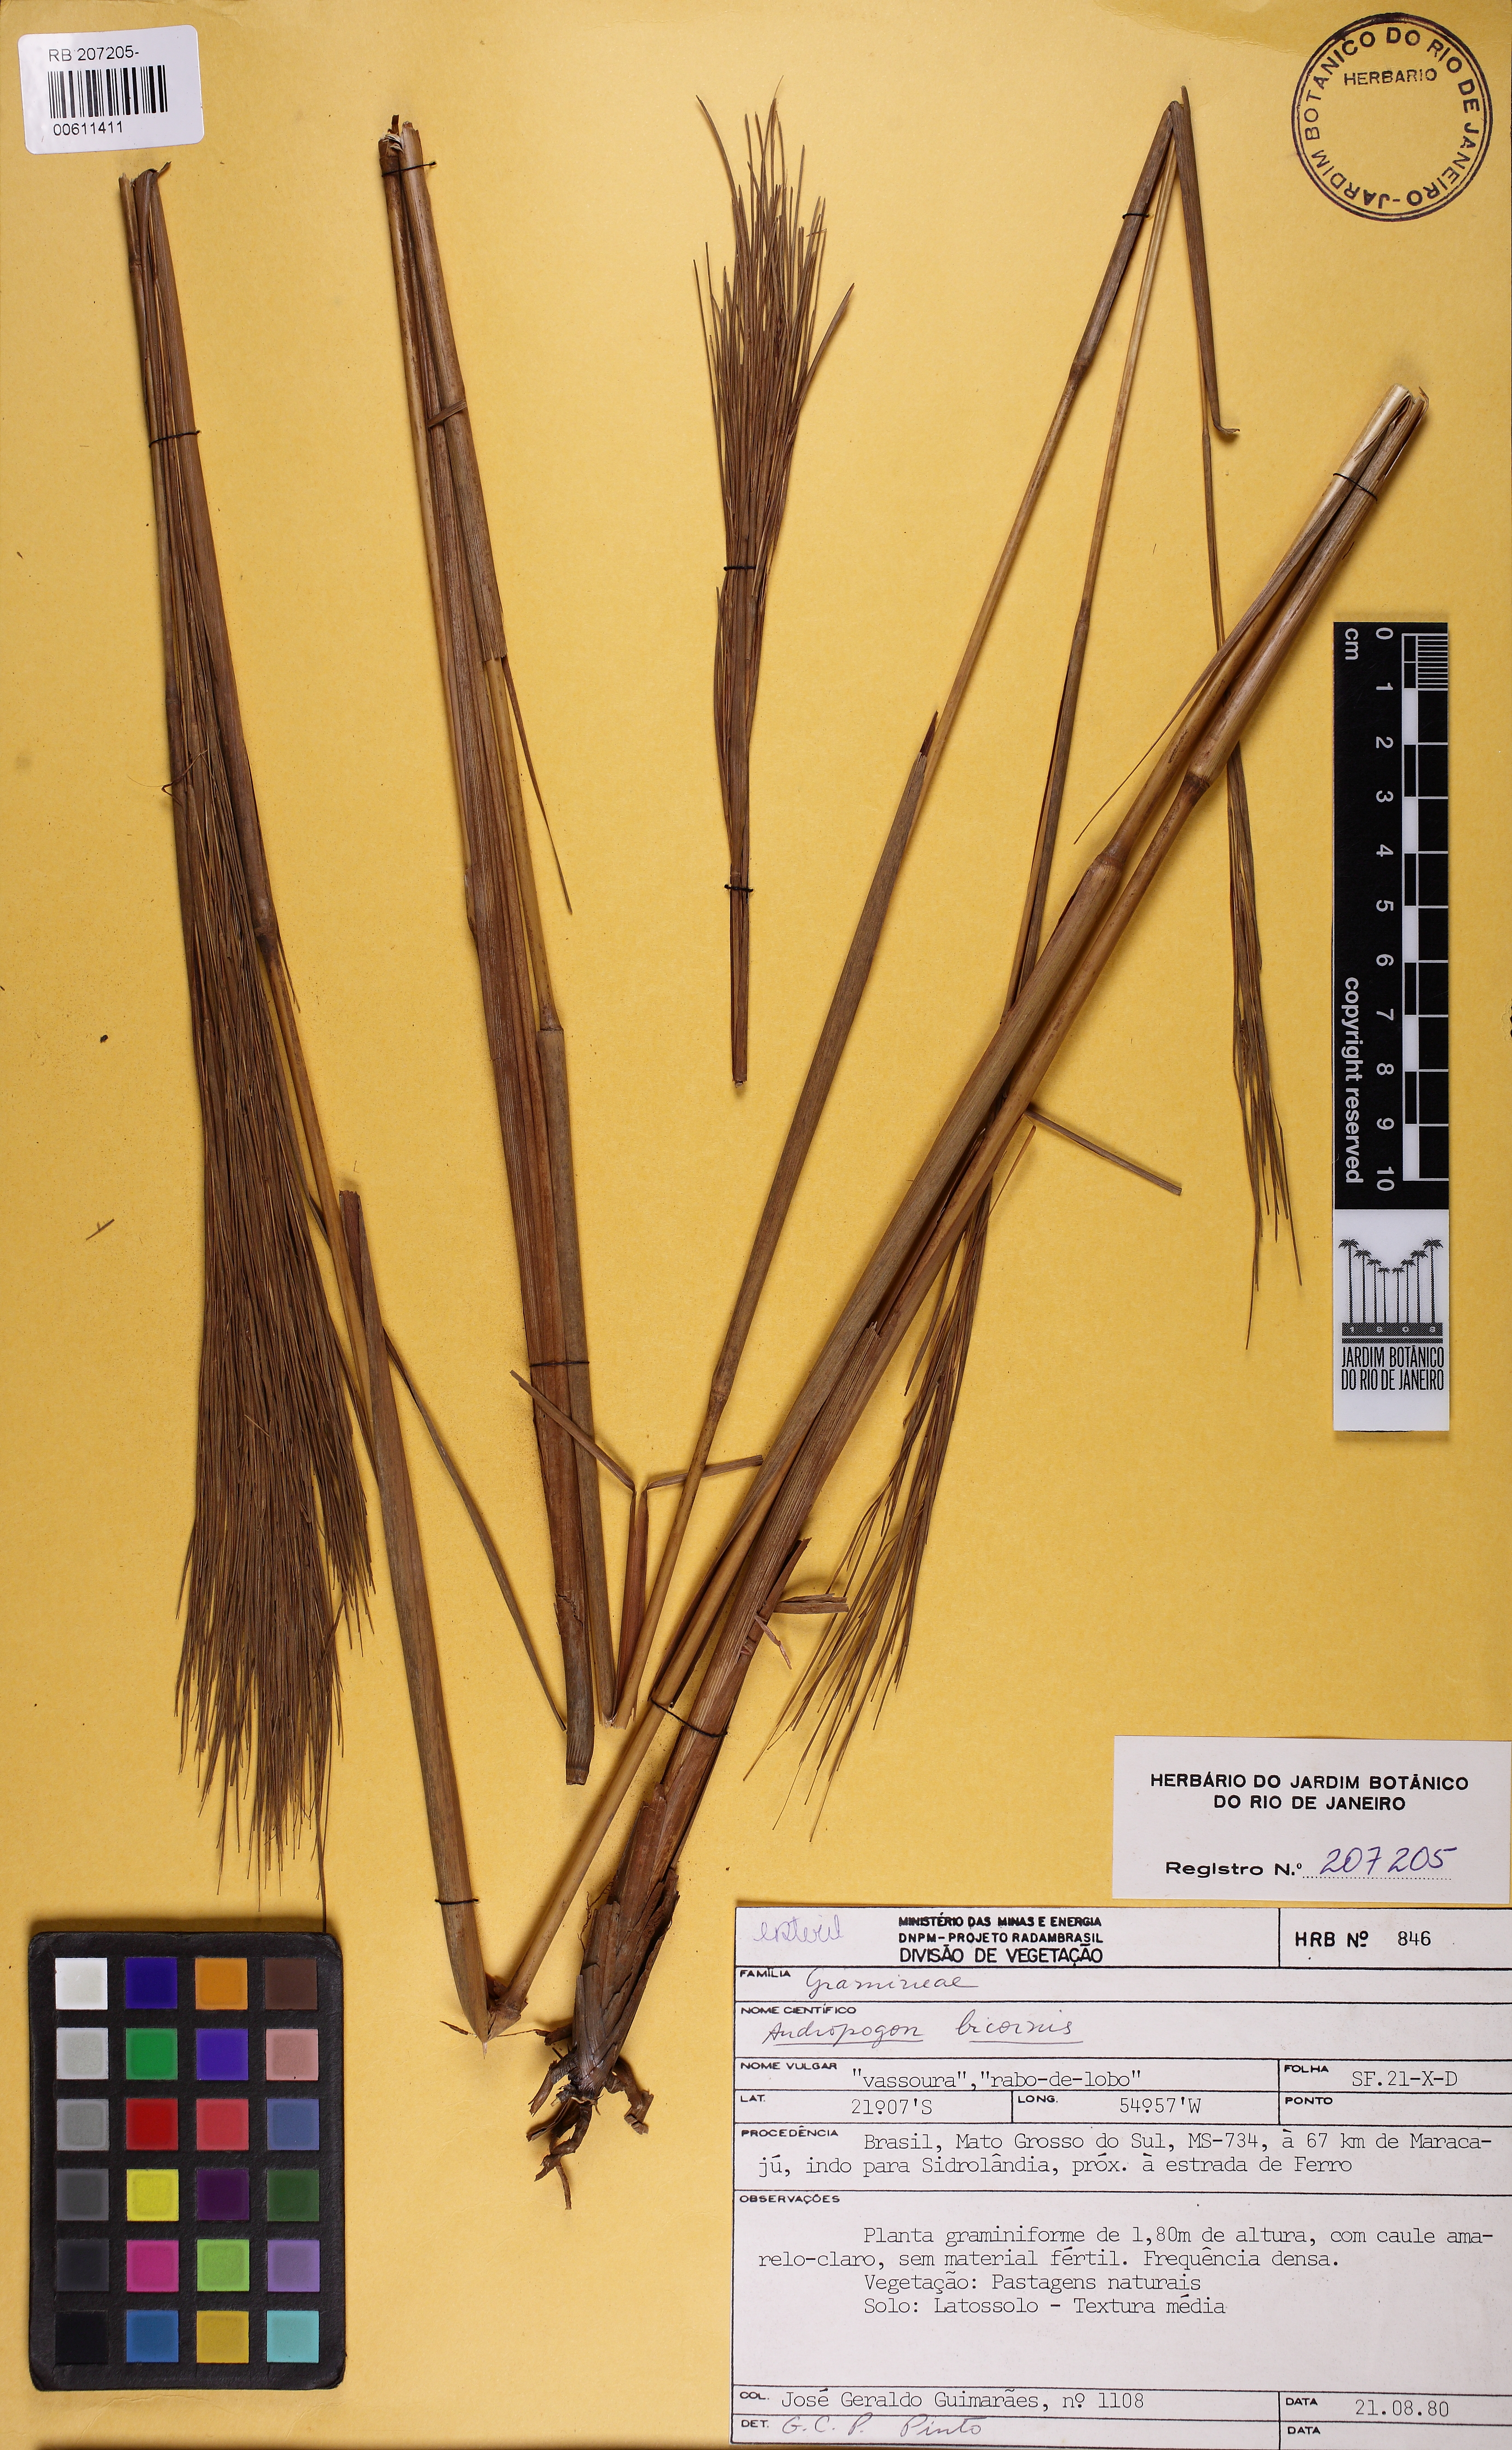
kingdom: Plantae
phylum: Tracheophyta
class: Liliopsida
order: Poales
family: Poaceae
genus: Andropogon
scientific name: Andropogon bicornis
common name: West indian foxtail grass
